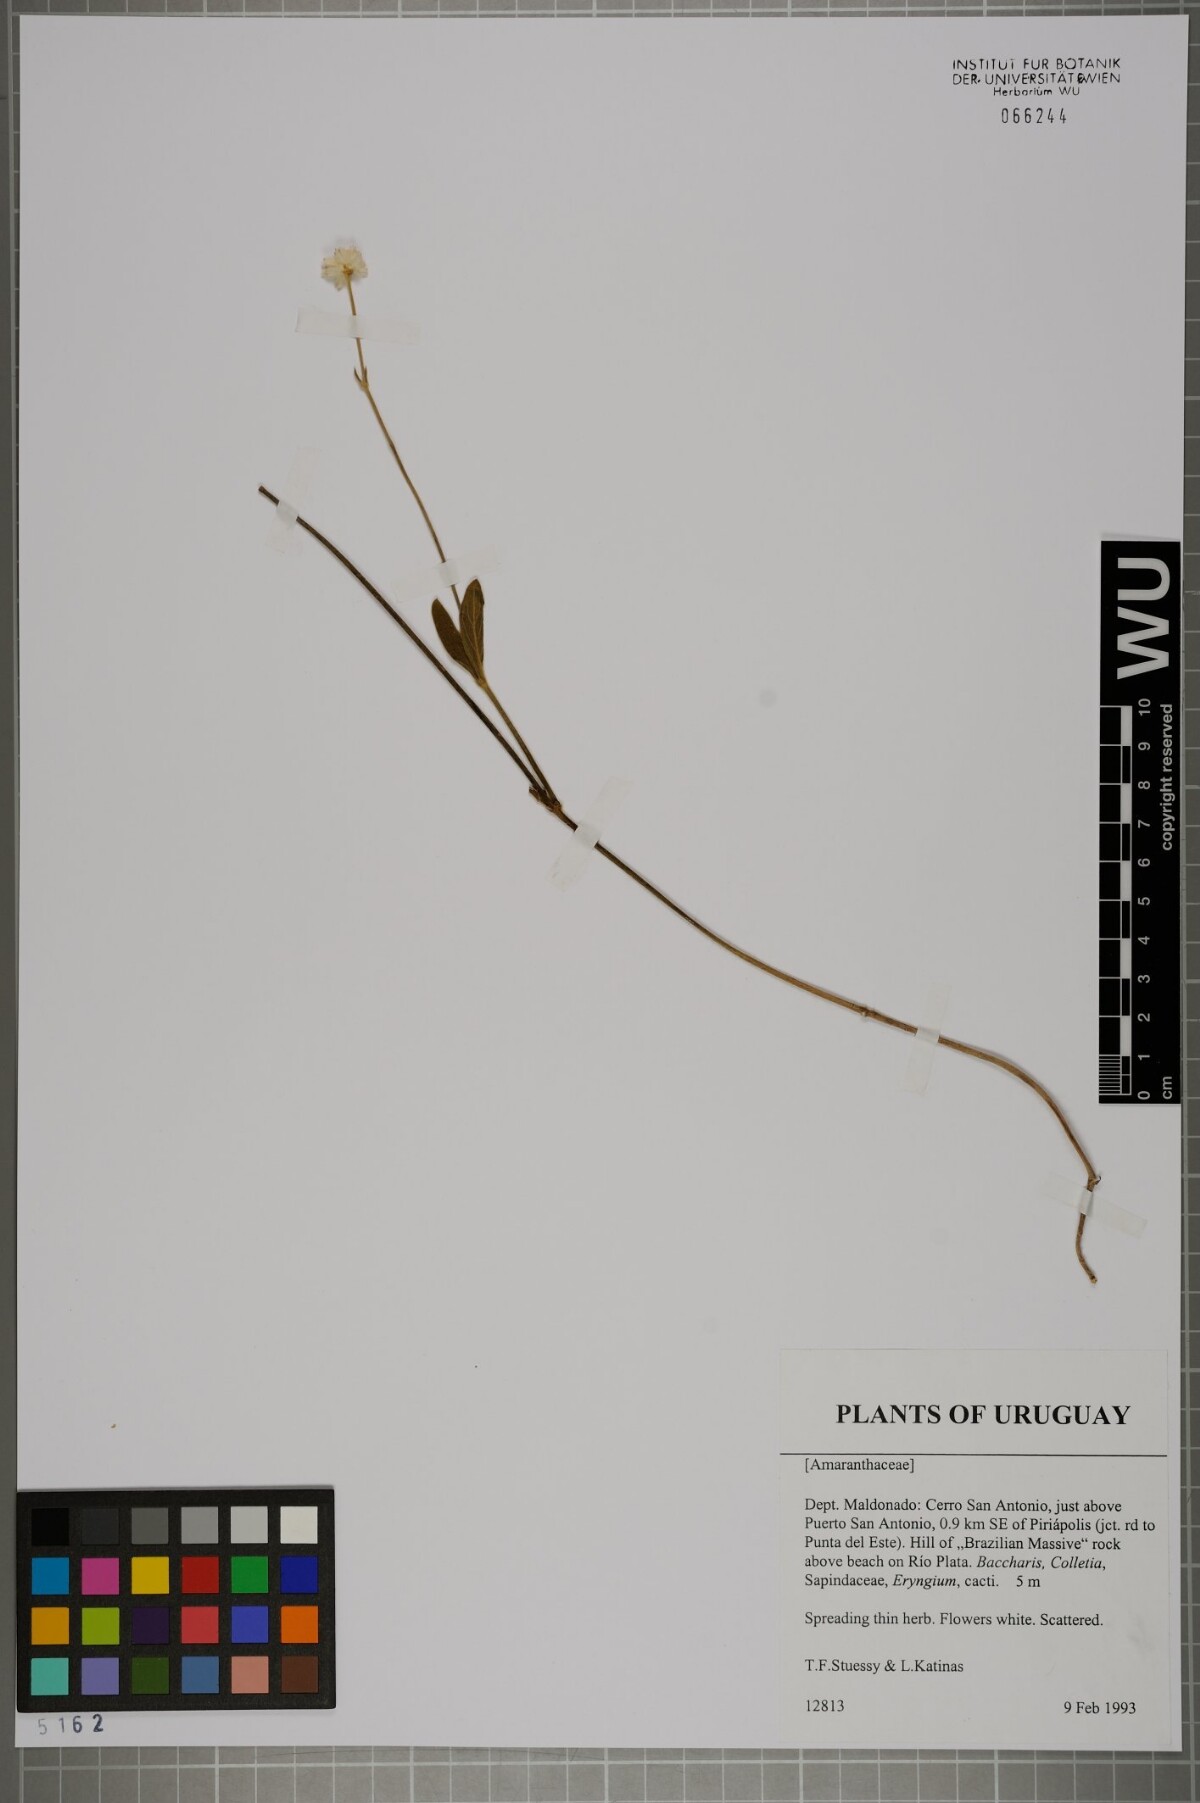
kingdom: Plantae
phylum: Tracheophyta
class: Magnoliopsida
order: Caryophyllales
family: Amaranthaceae
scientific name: Amaranthaceae
